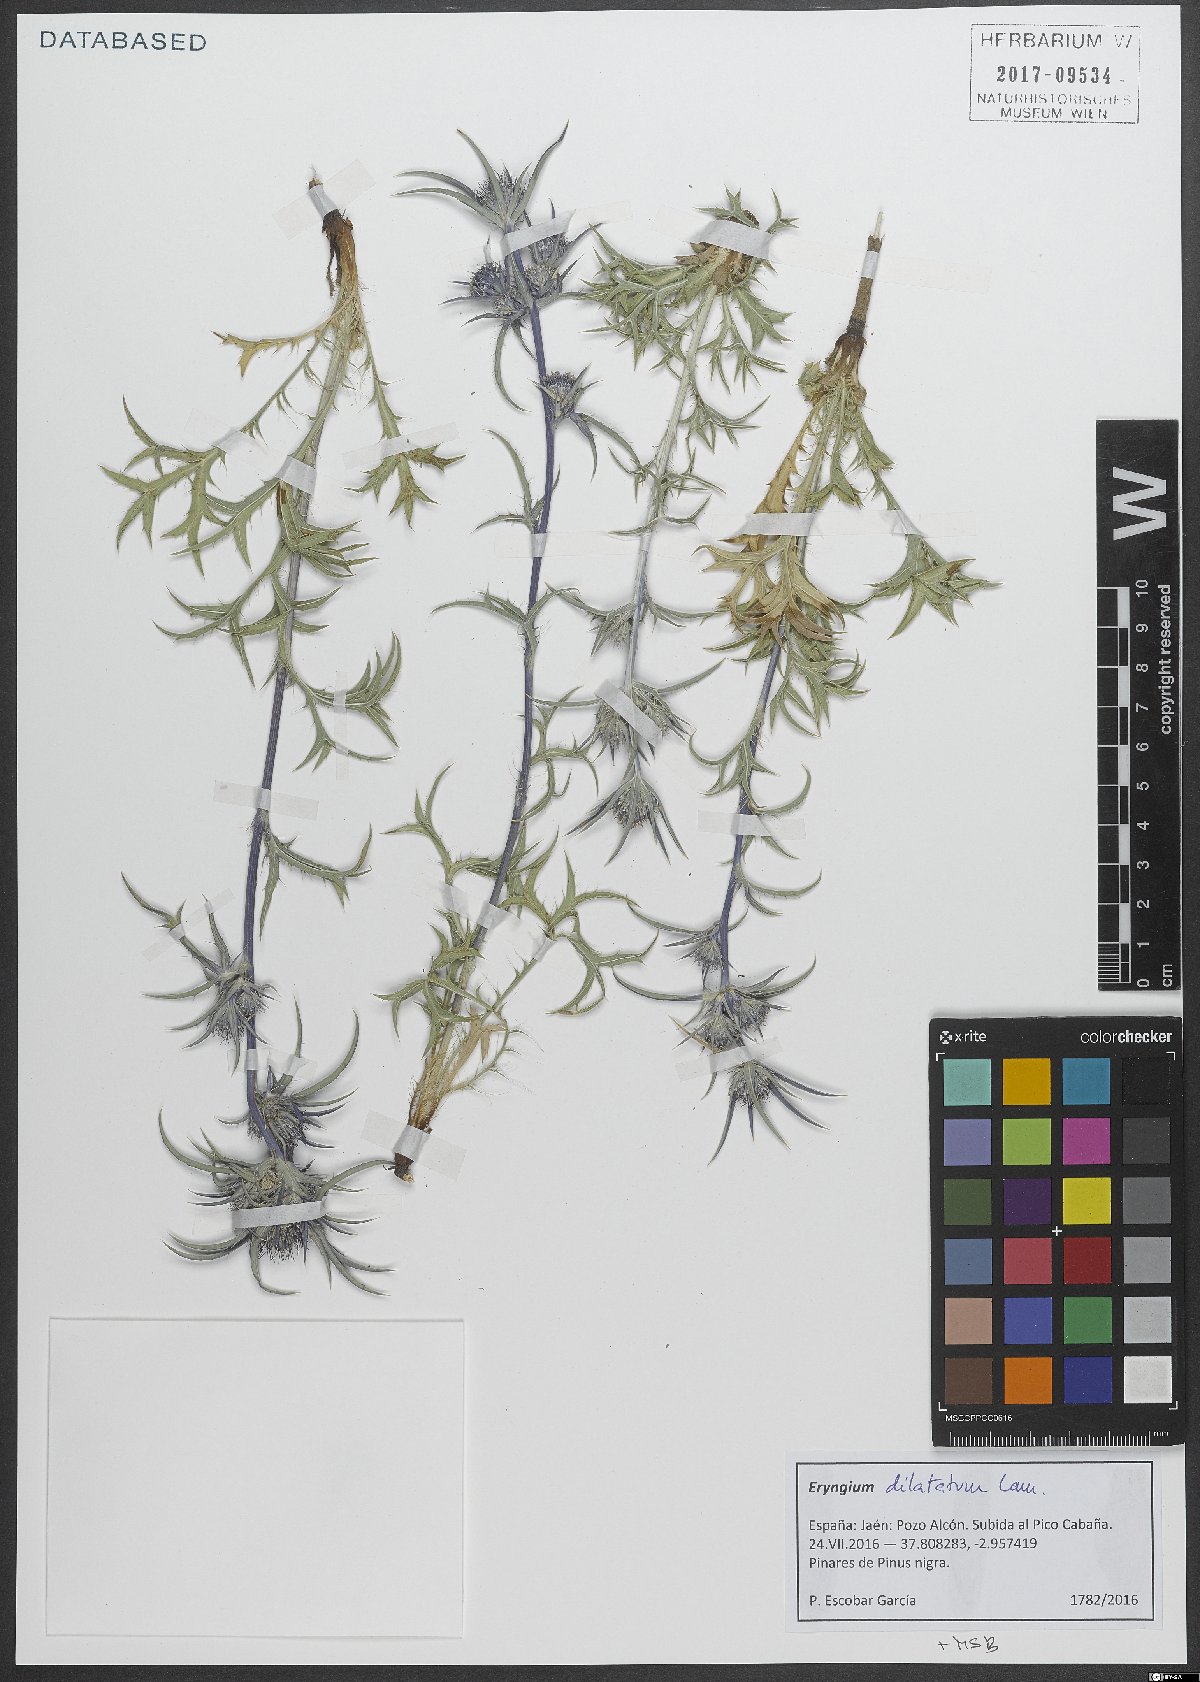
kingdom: Plantae
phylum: Tracheophyta
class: Magnoliopsida
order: Apiales
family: Apiaceae
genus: Eryngium
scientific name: Eryngium dilatatum
